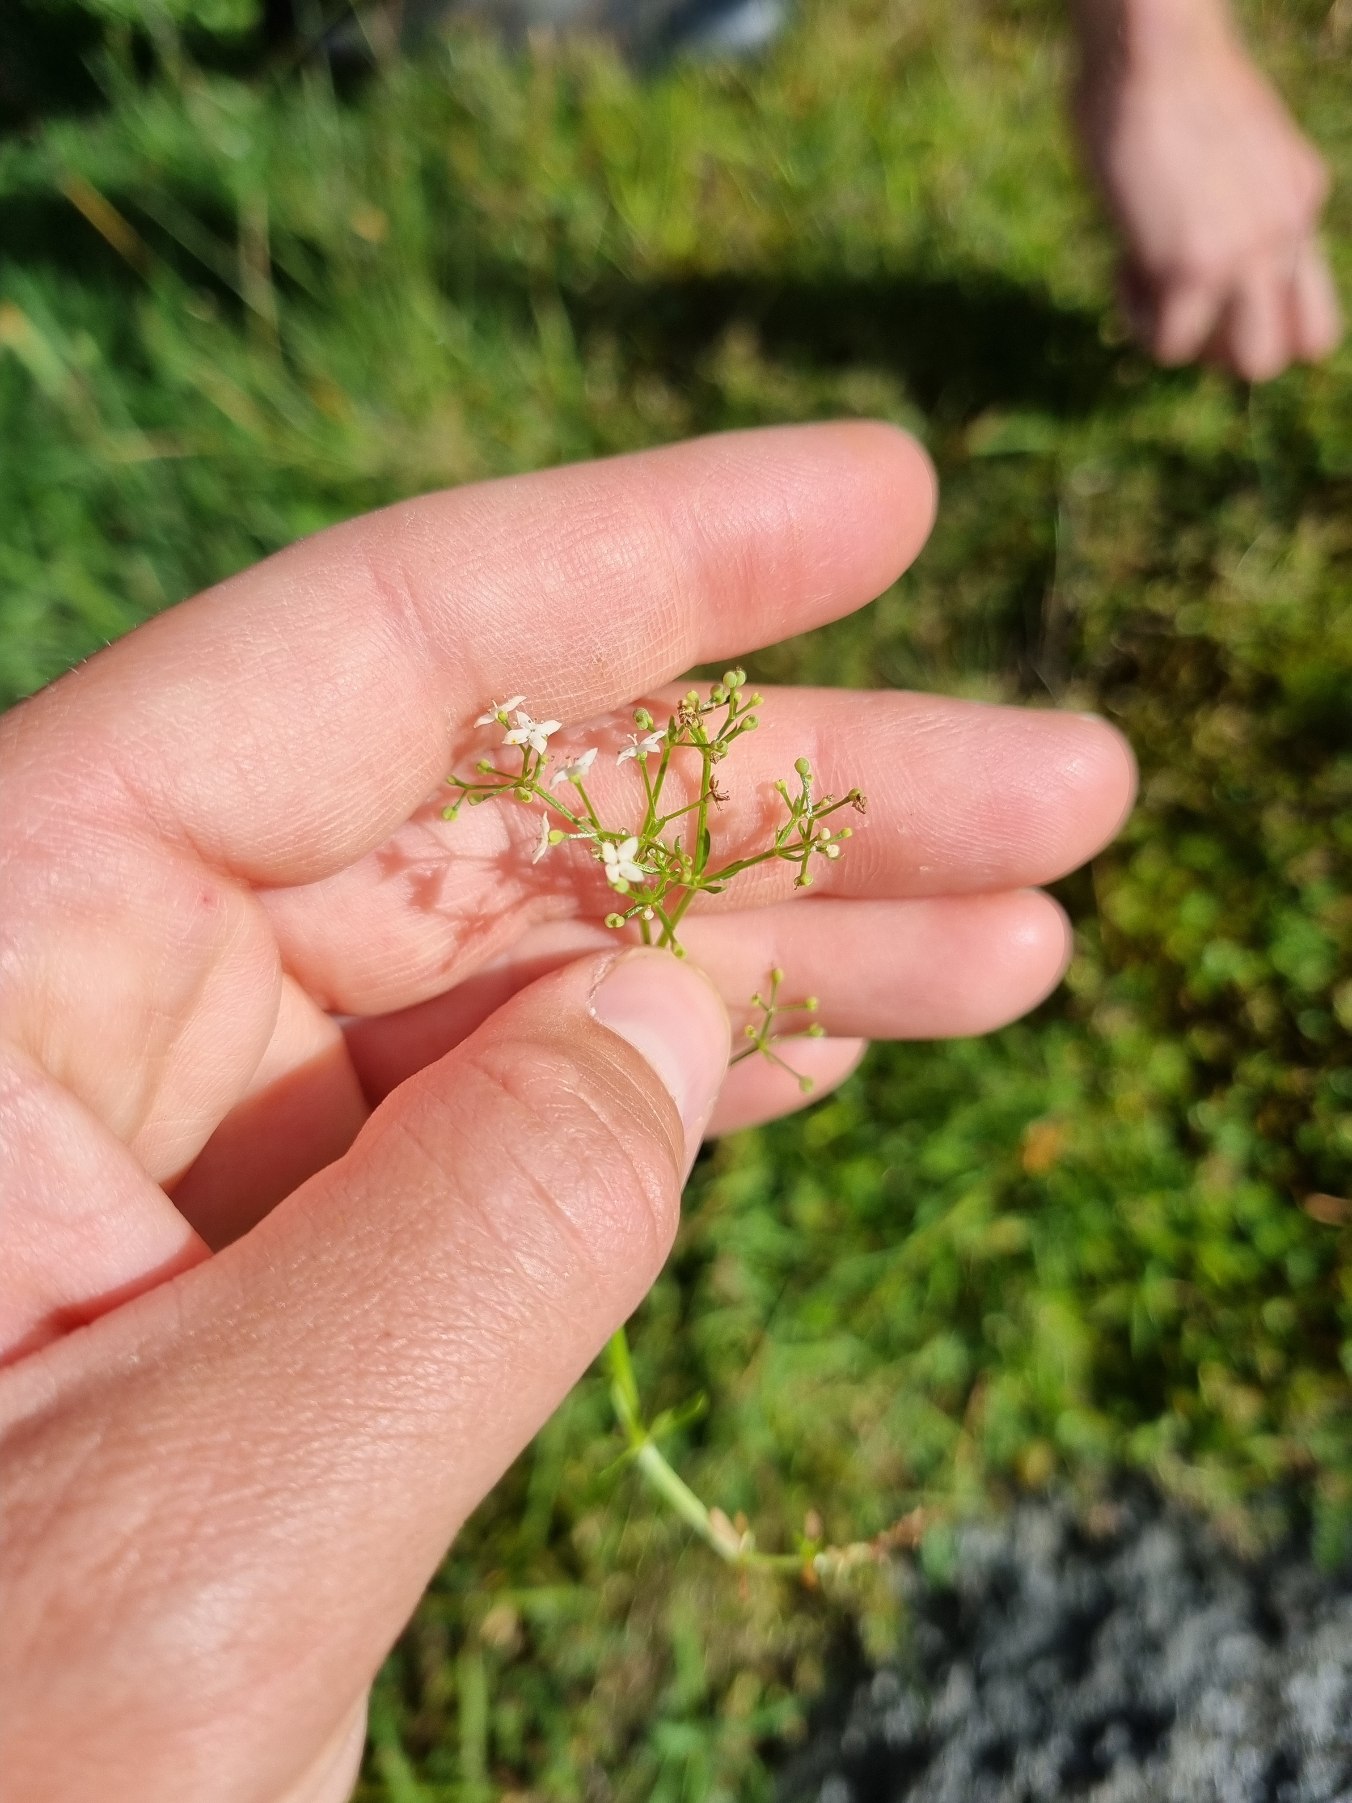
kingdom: Plantae
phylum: Tracheophyta
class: Magnoliopsida
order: Gentianales
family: Rubiaceae
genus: Galium
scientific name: Galium saxatile
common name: Lyng-snerre
